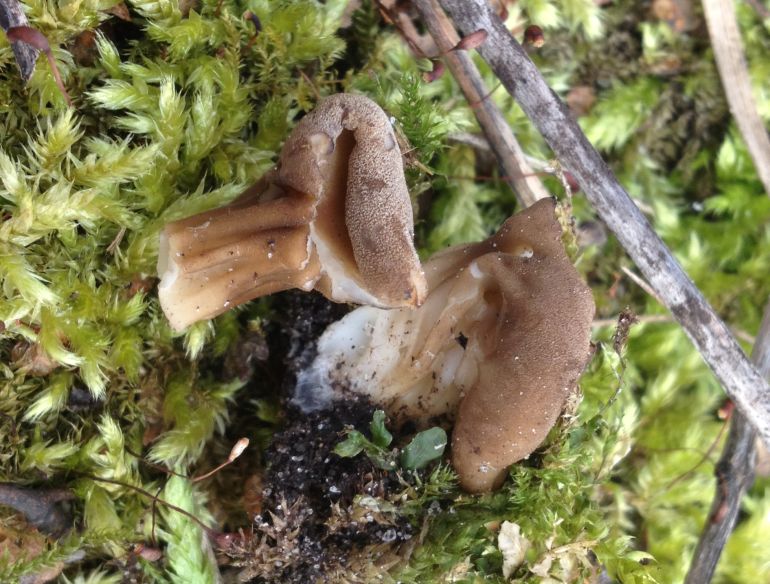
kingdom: Fungi
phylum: Ascomycota
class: Pezizomycetes
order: Pezizales
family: Helvellaceae
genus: Helvella
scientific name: Helvella acetabulum
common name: pokal-foldhat
